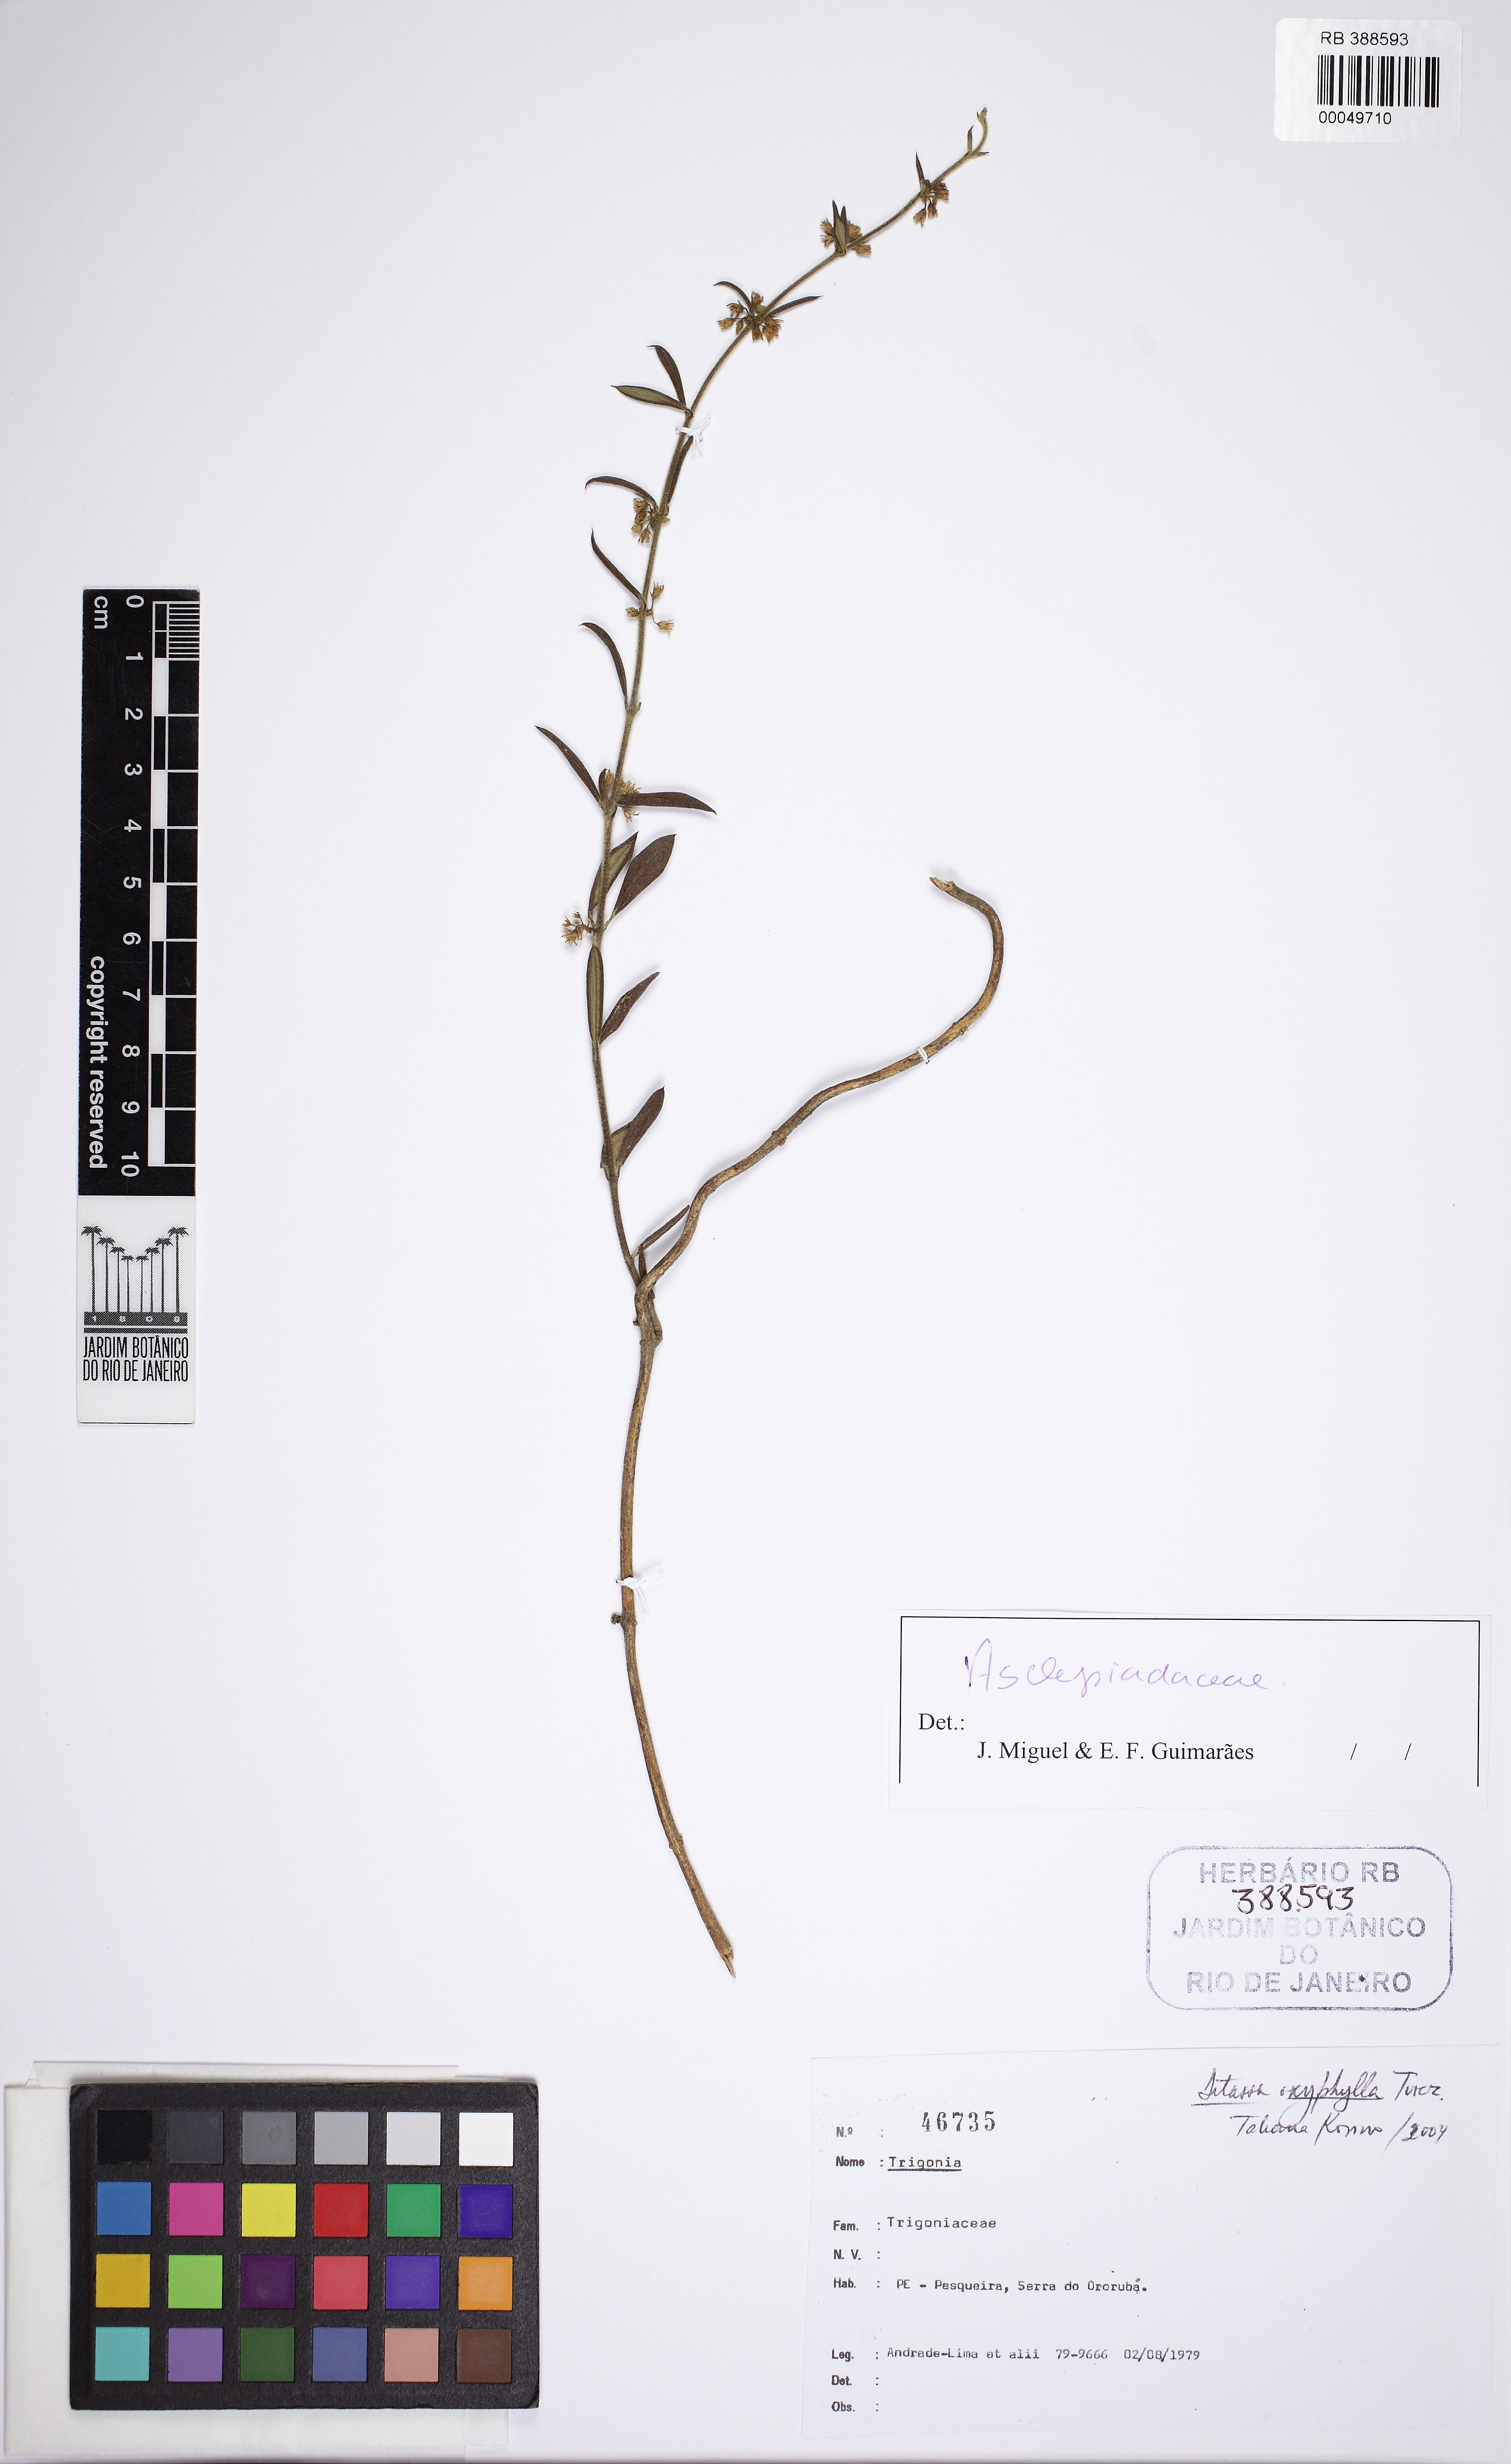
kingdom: Plantae
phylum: Tracheophyta
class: Magnoliopsida
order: Gentianales
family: Apocynaceae
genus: Ditassa
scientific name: Ditassa oxyphylla
